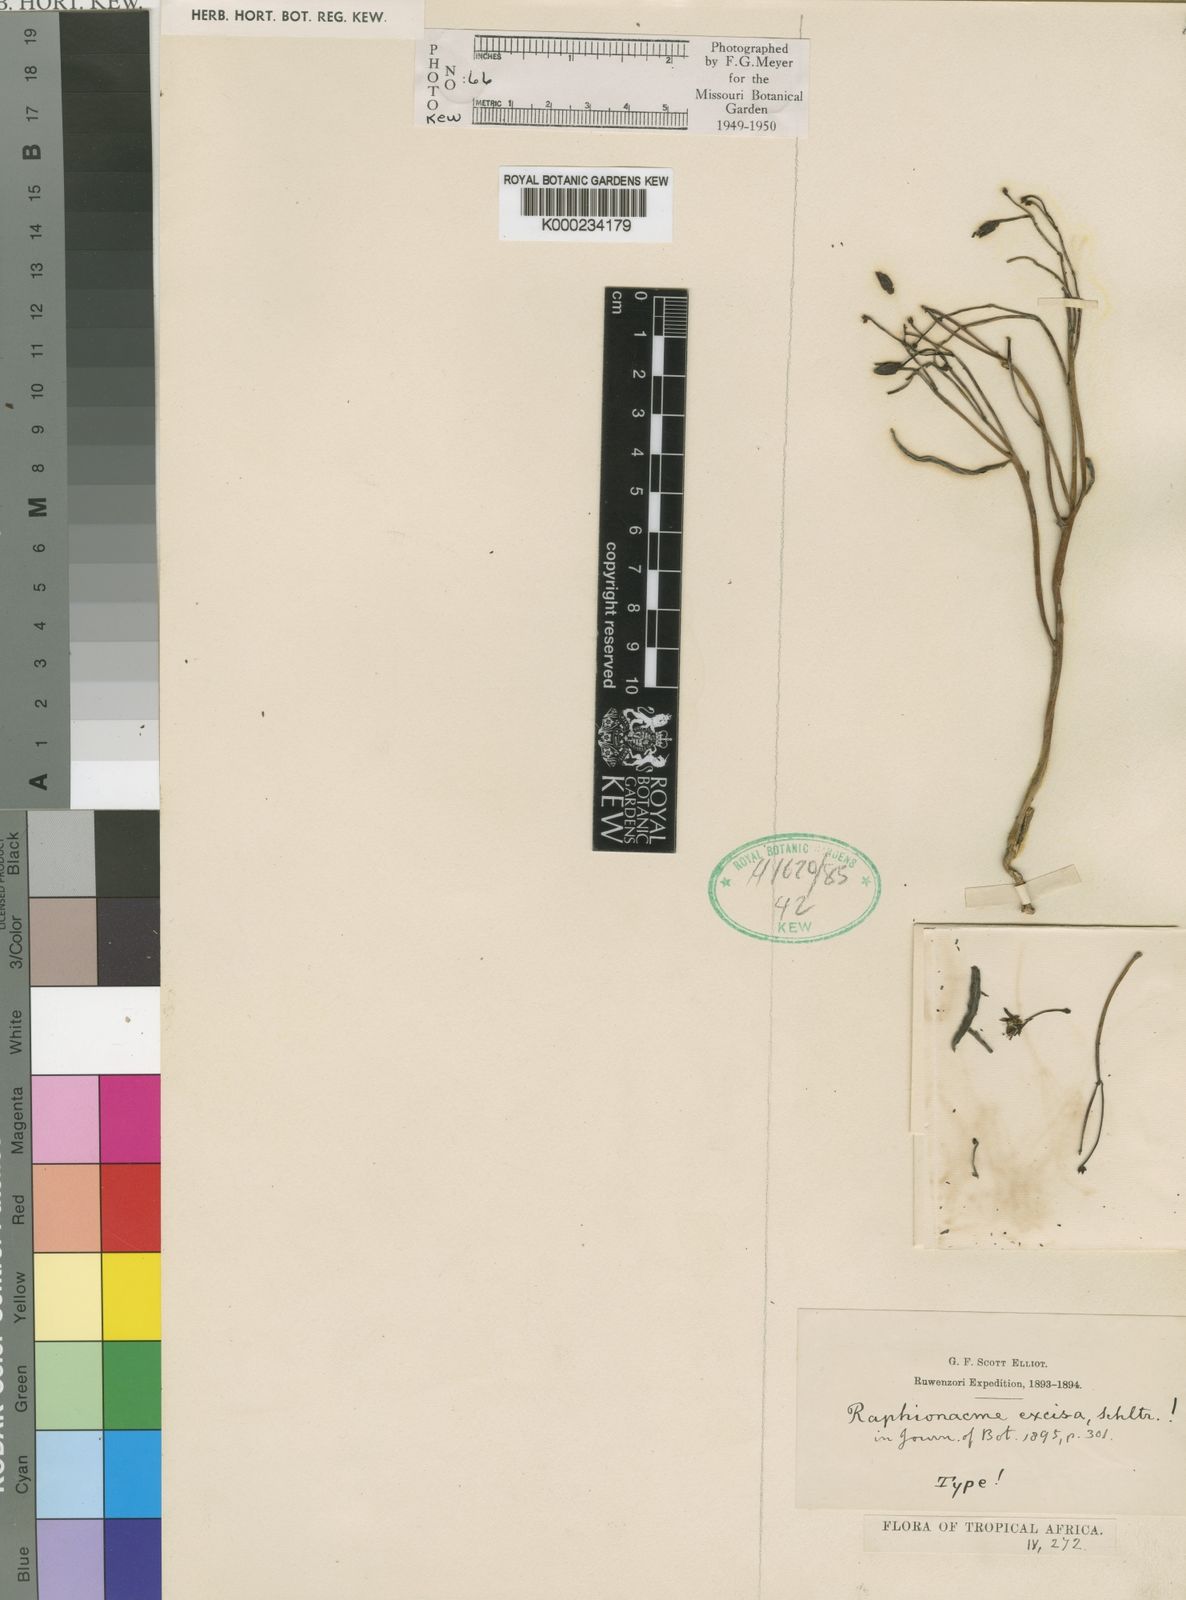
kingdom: Plantae
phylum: Tracheophyta
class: Magnoliopsida
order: Gentianales
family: Apocynaceae
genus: Raphionacme
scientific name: Raphionacme splendens
